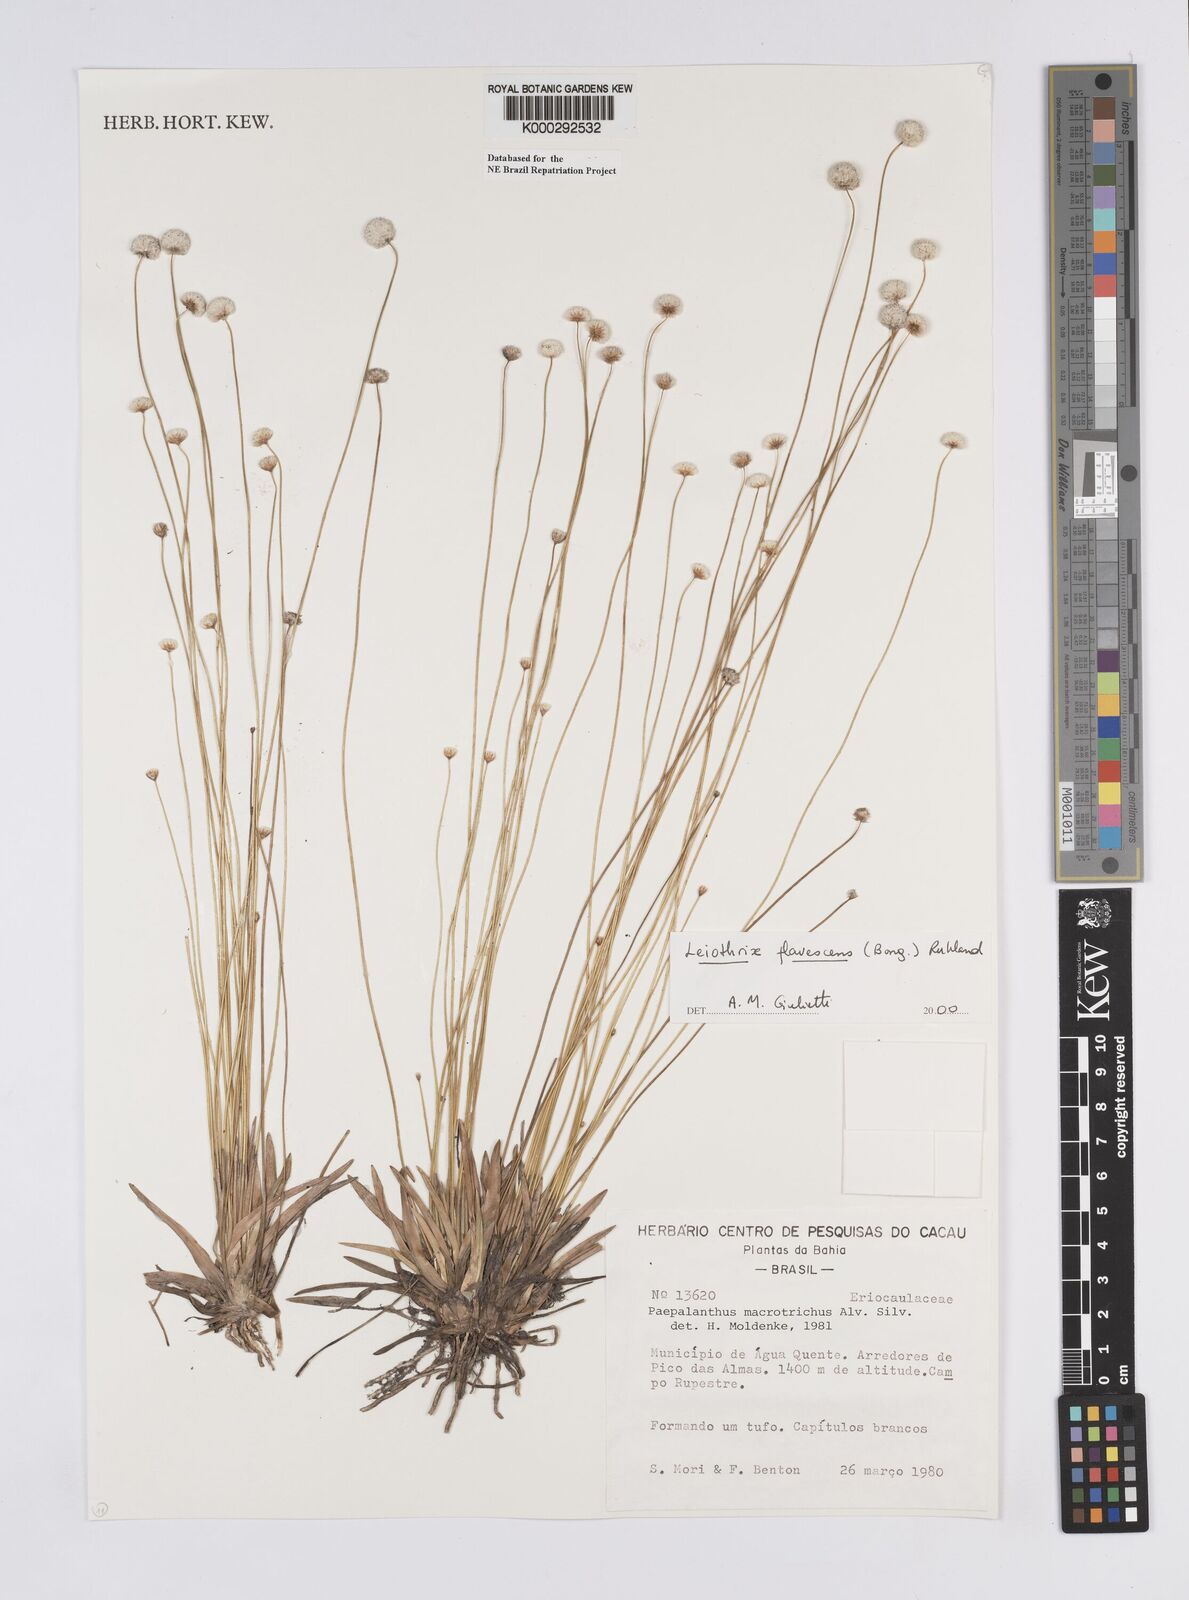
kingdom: Plantae
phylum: Tracheophyta
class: Liliopsida
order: Poales
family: Eriocaulaceae
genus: Leiothrix
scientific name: Leiothrix flavescens
